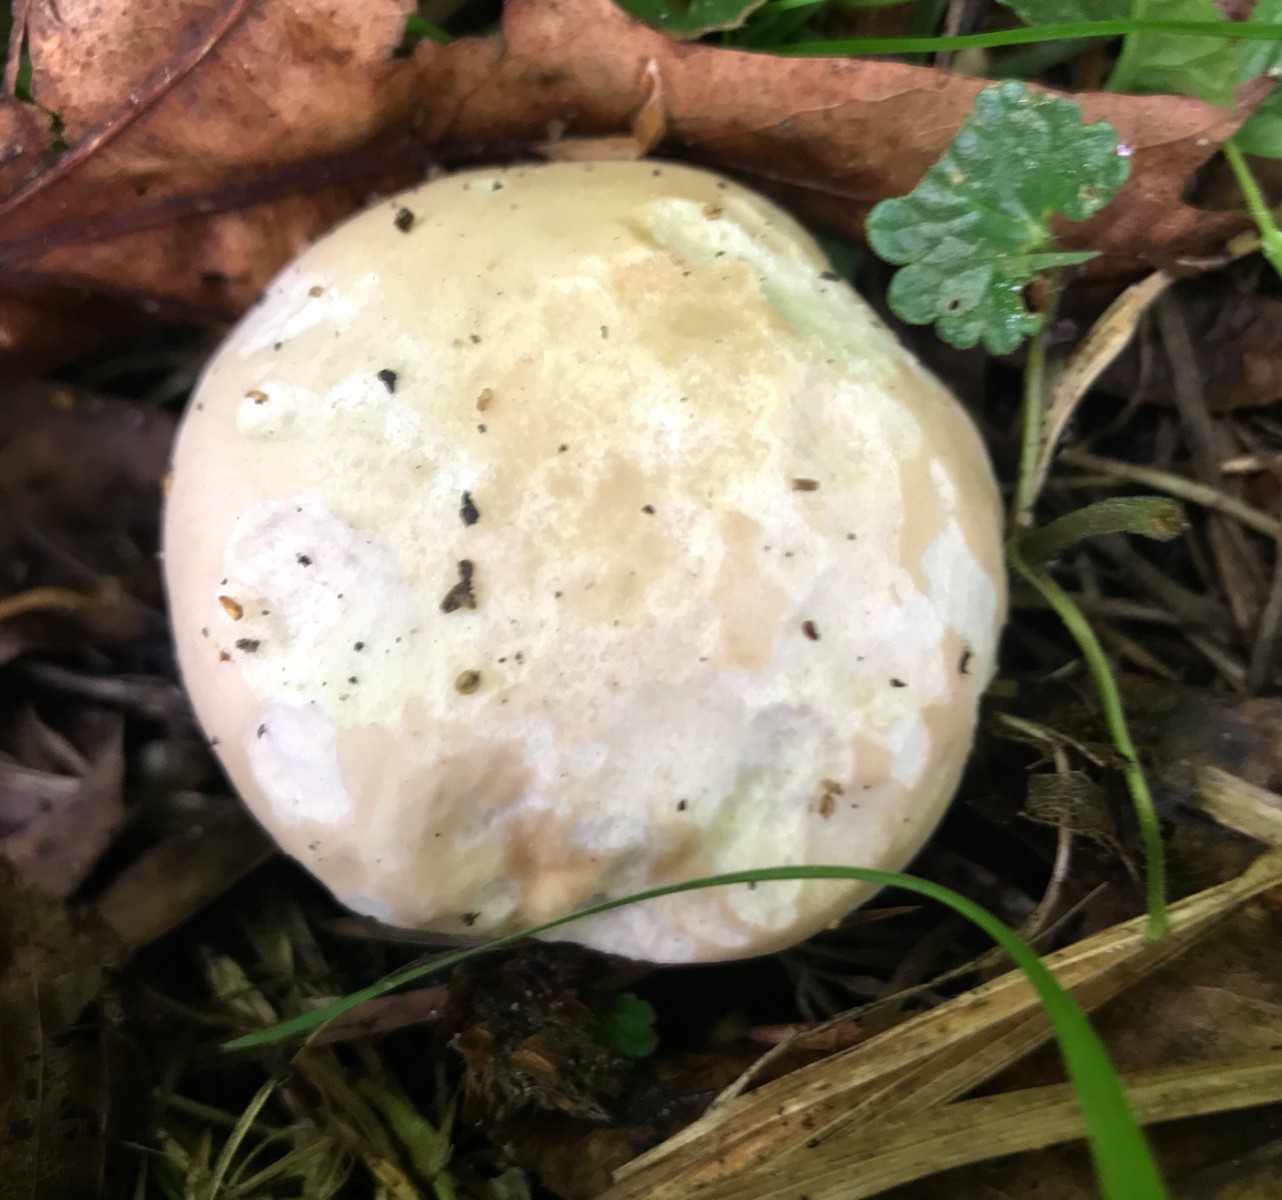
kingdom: Fungi
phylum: Basidiomycota
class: Agaricomycetes
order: Agaricales
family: Lyophyllaceae
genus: Calocybe
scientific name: Calocybe gambosa
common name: vårmusseron
